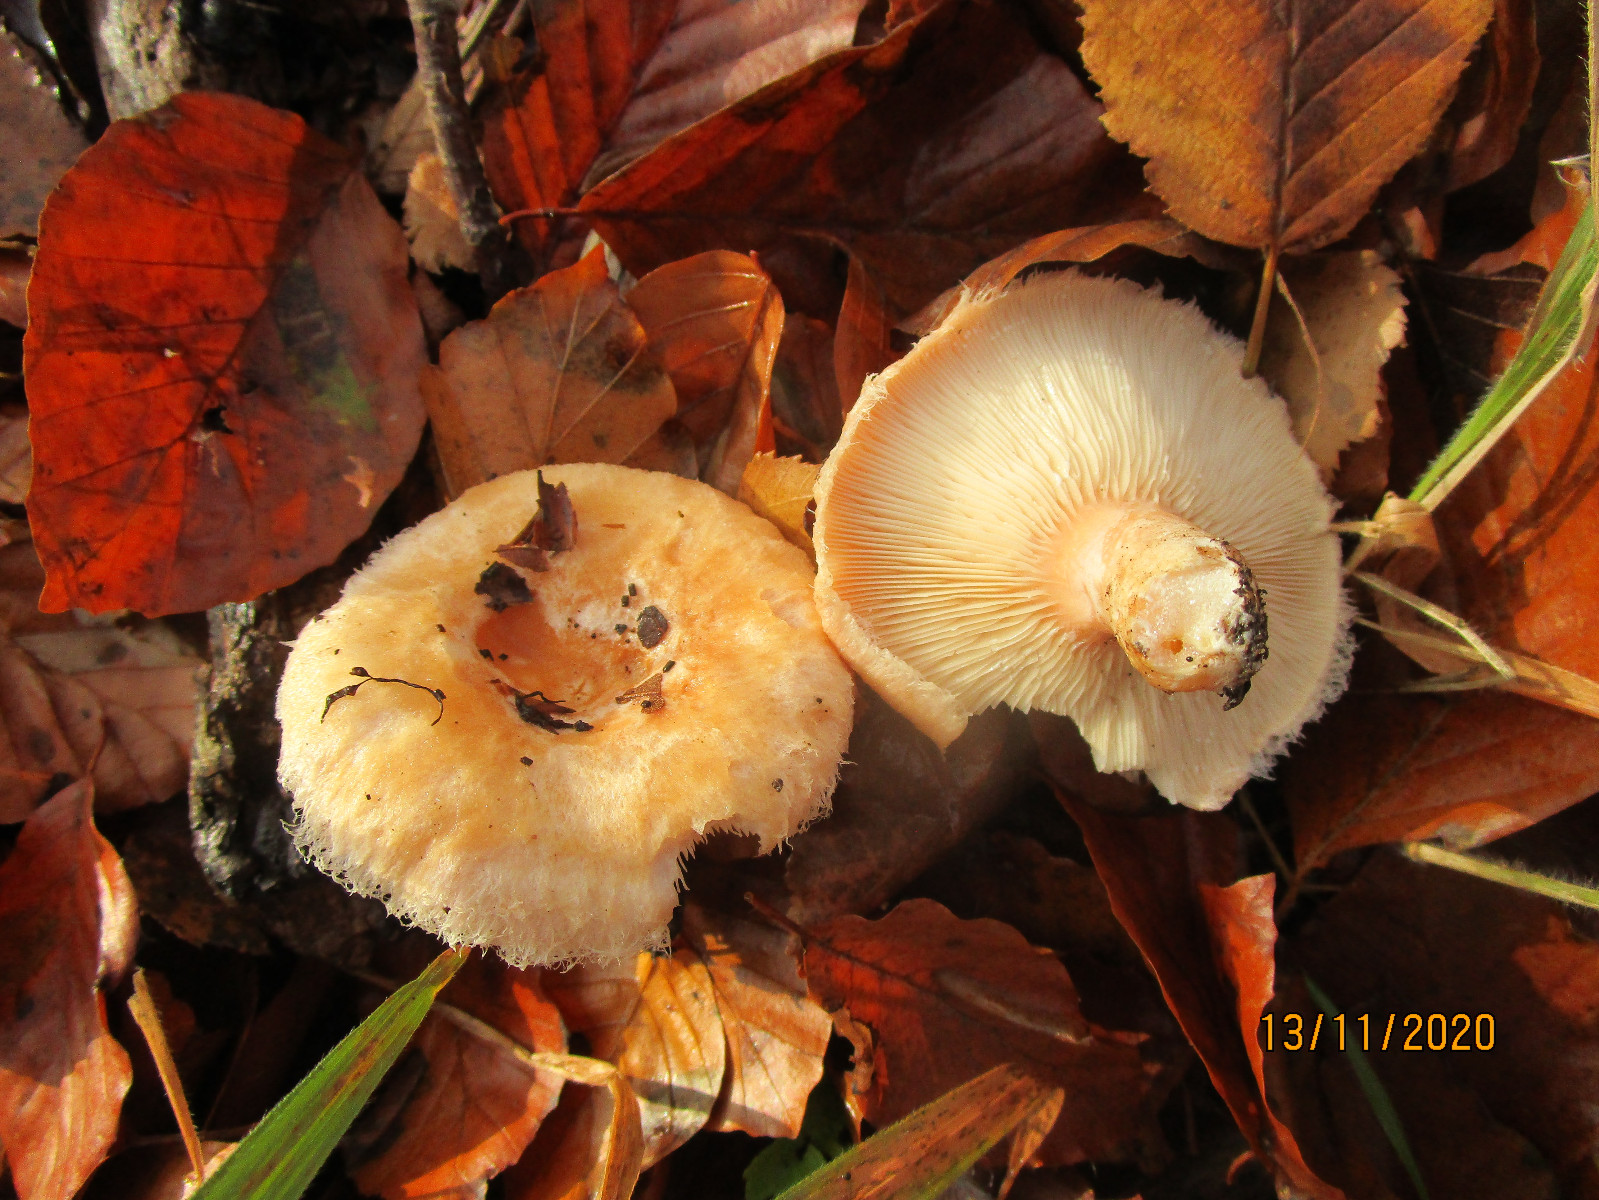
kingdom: Fungi
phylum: Basidiomycota
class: Agaricomycetes
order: Russulales
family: Russulaceae
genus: Lactarius
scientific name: Lactarius pubescens
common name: dunet mælkehat
